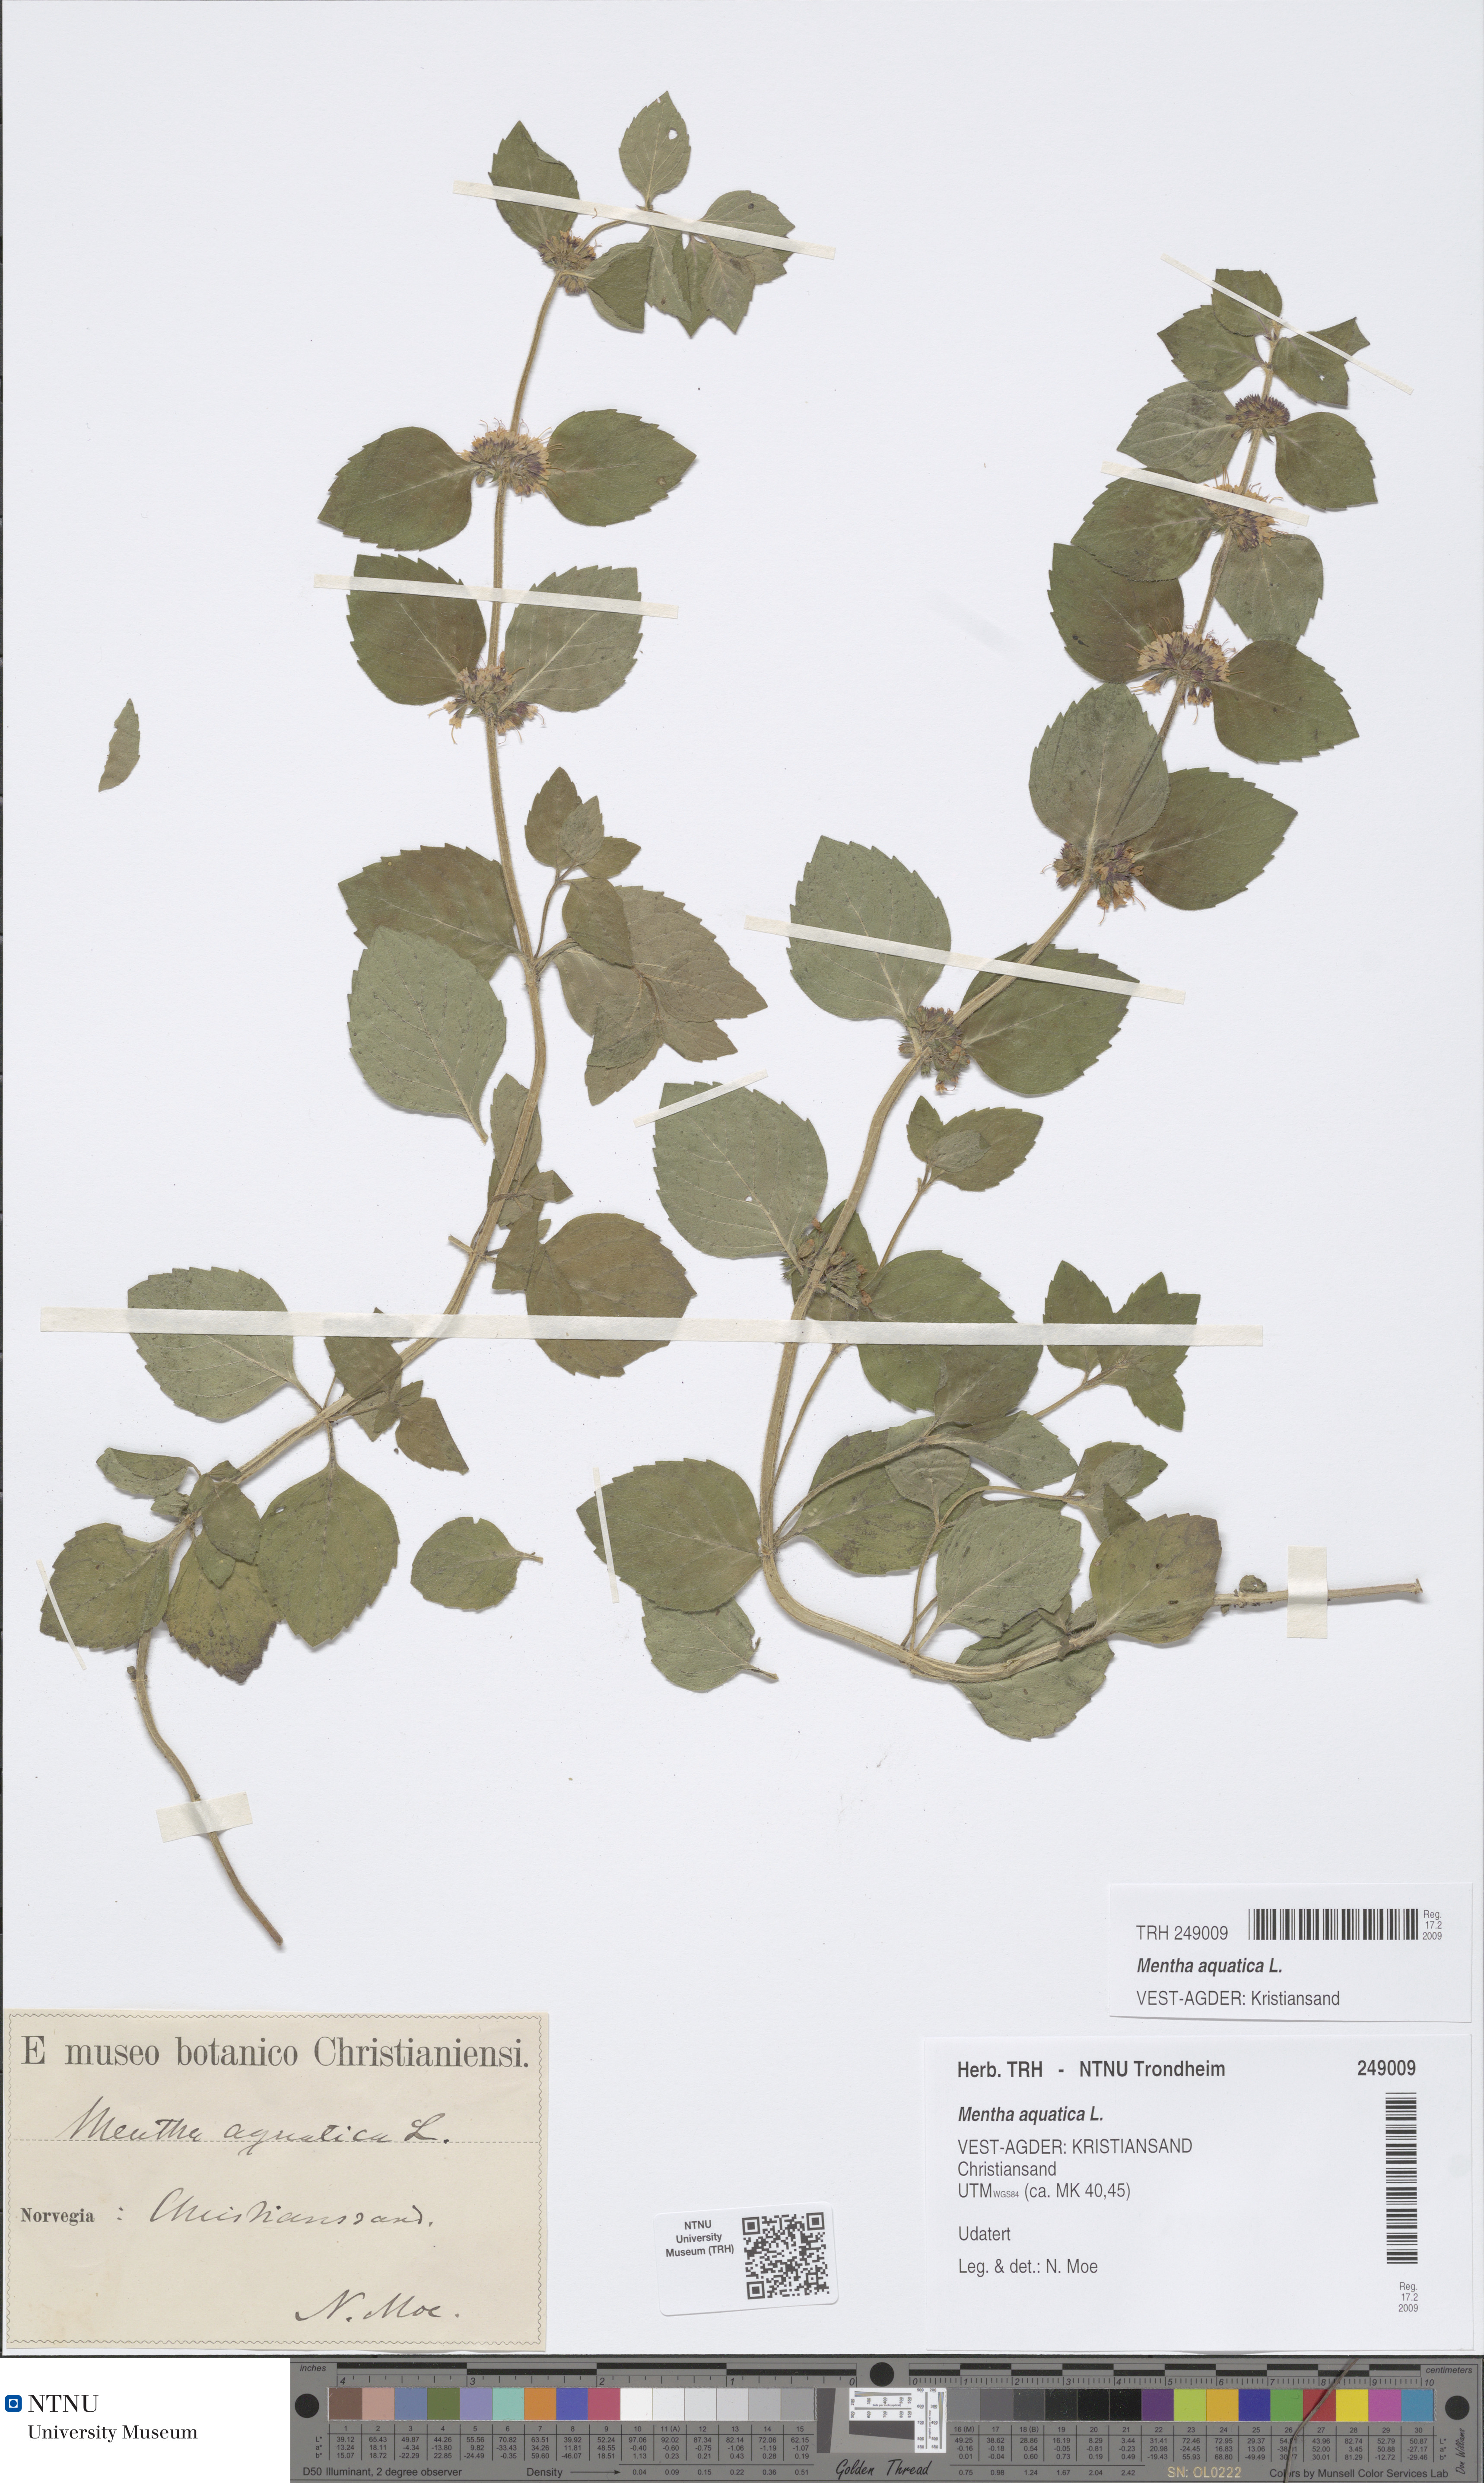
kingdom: Plantae
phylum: Tracheophyta
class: Magnoliopsida
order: Lamiales
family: Lamiaceae
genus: Mentha
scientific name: Mentha aquatica
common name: Water mint
